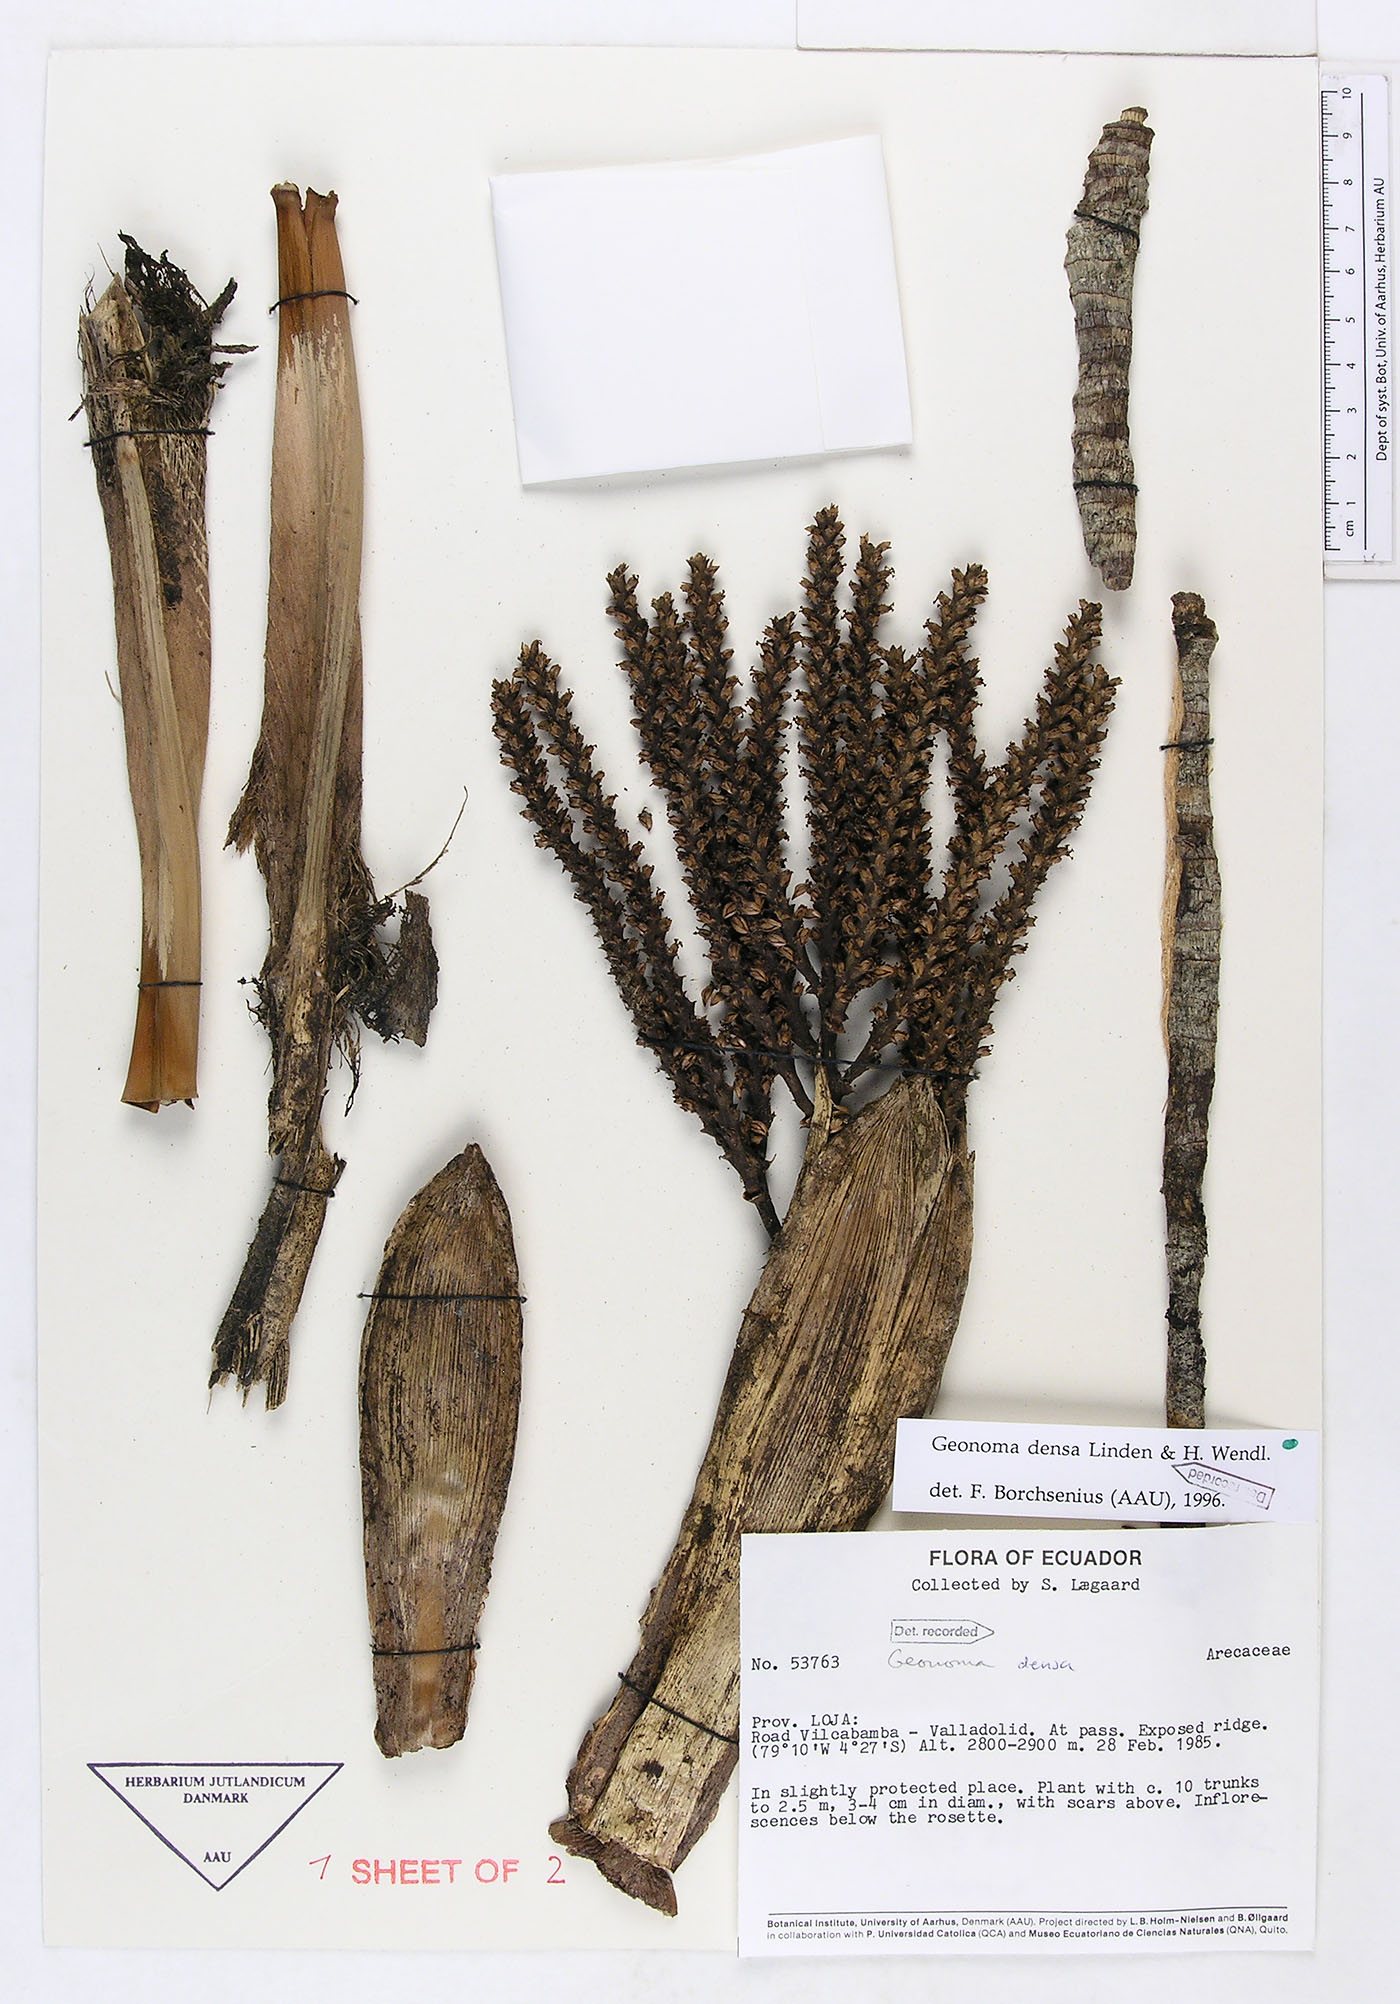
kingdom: Plantae
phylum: Tracheophyta
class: Liliopsida
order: Arecales
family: Arecaceae
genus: Geonoma
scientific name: Geonoma undata
